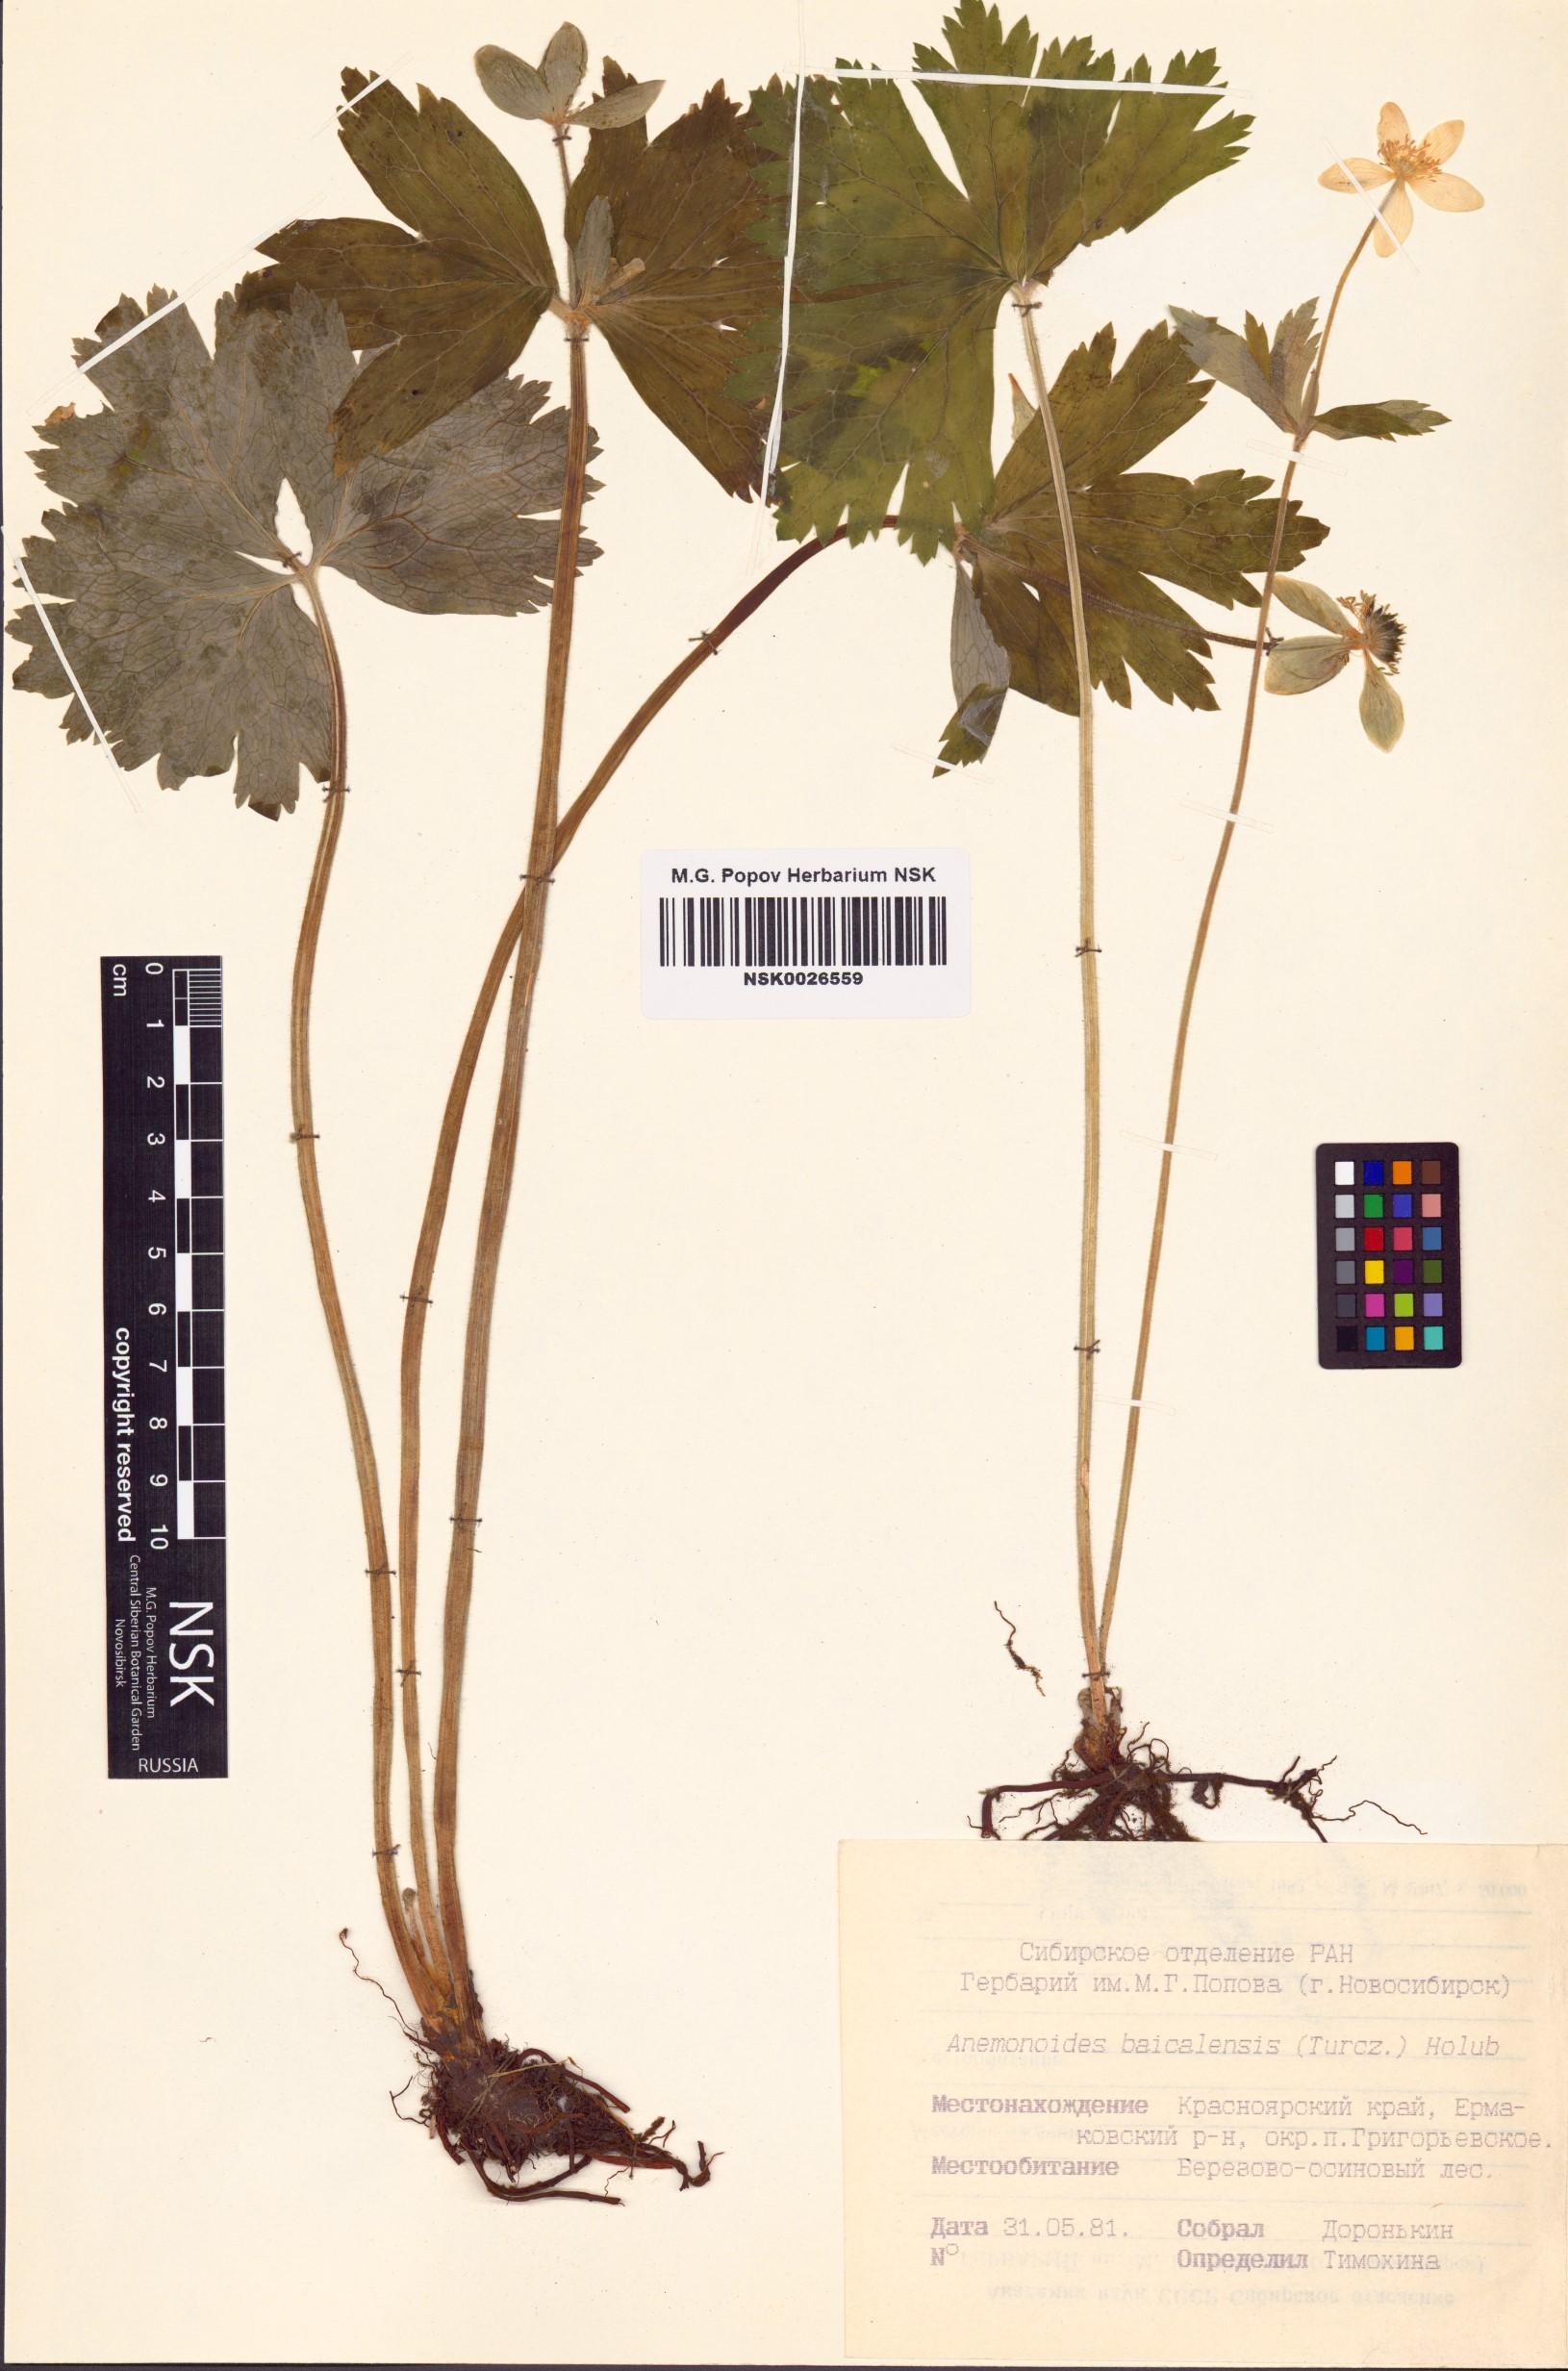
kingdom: Plantae
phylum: Tracheophyta
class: Magnoliopsida
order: Ranunculales
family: Ranunculaceae
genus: Anemonastrum
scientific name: Anemonastrum baicalense
